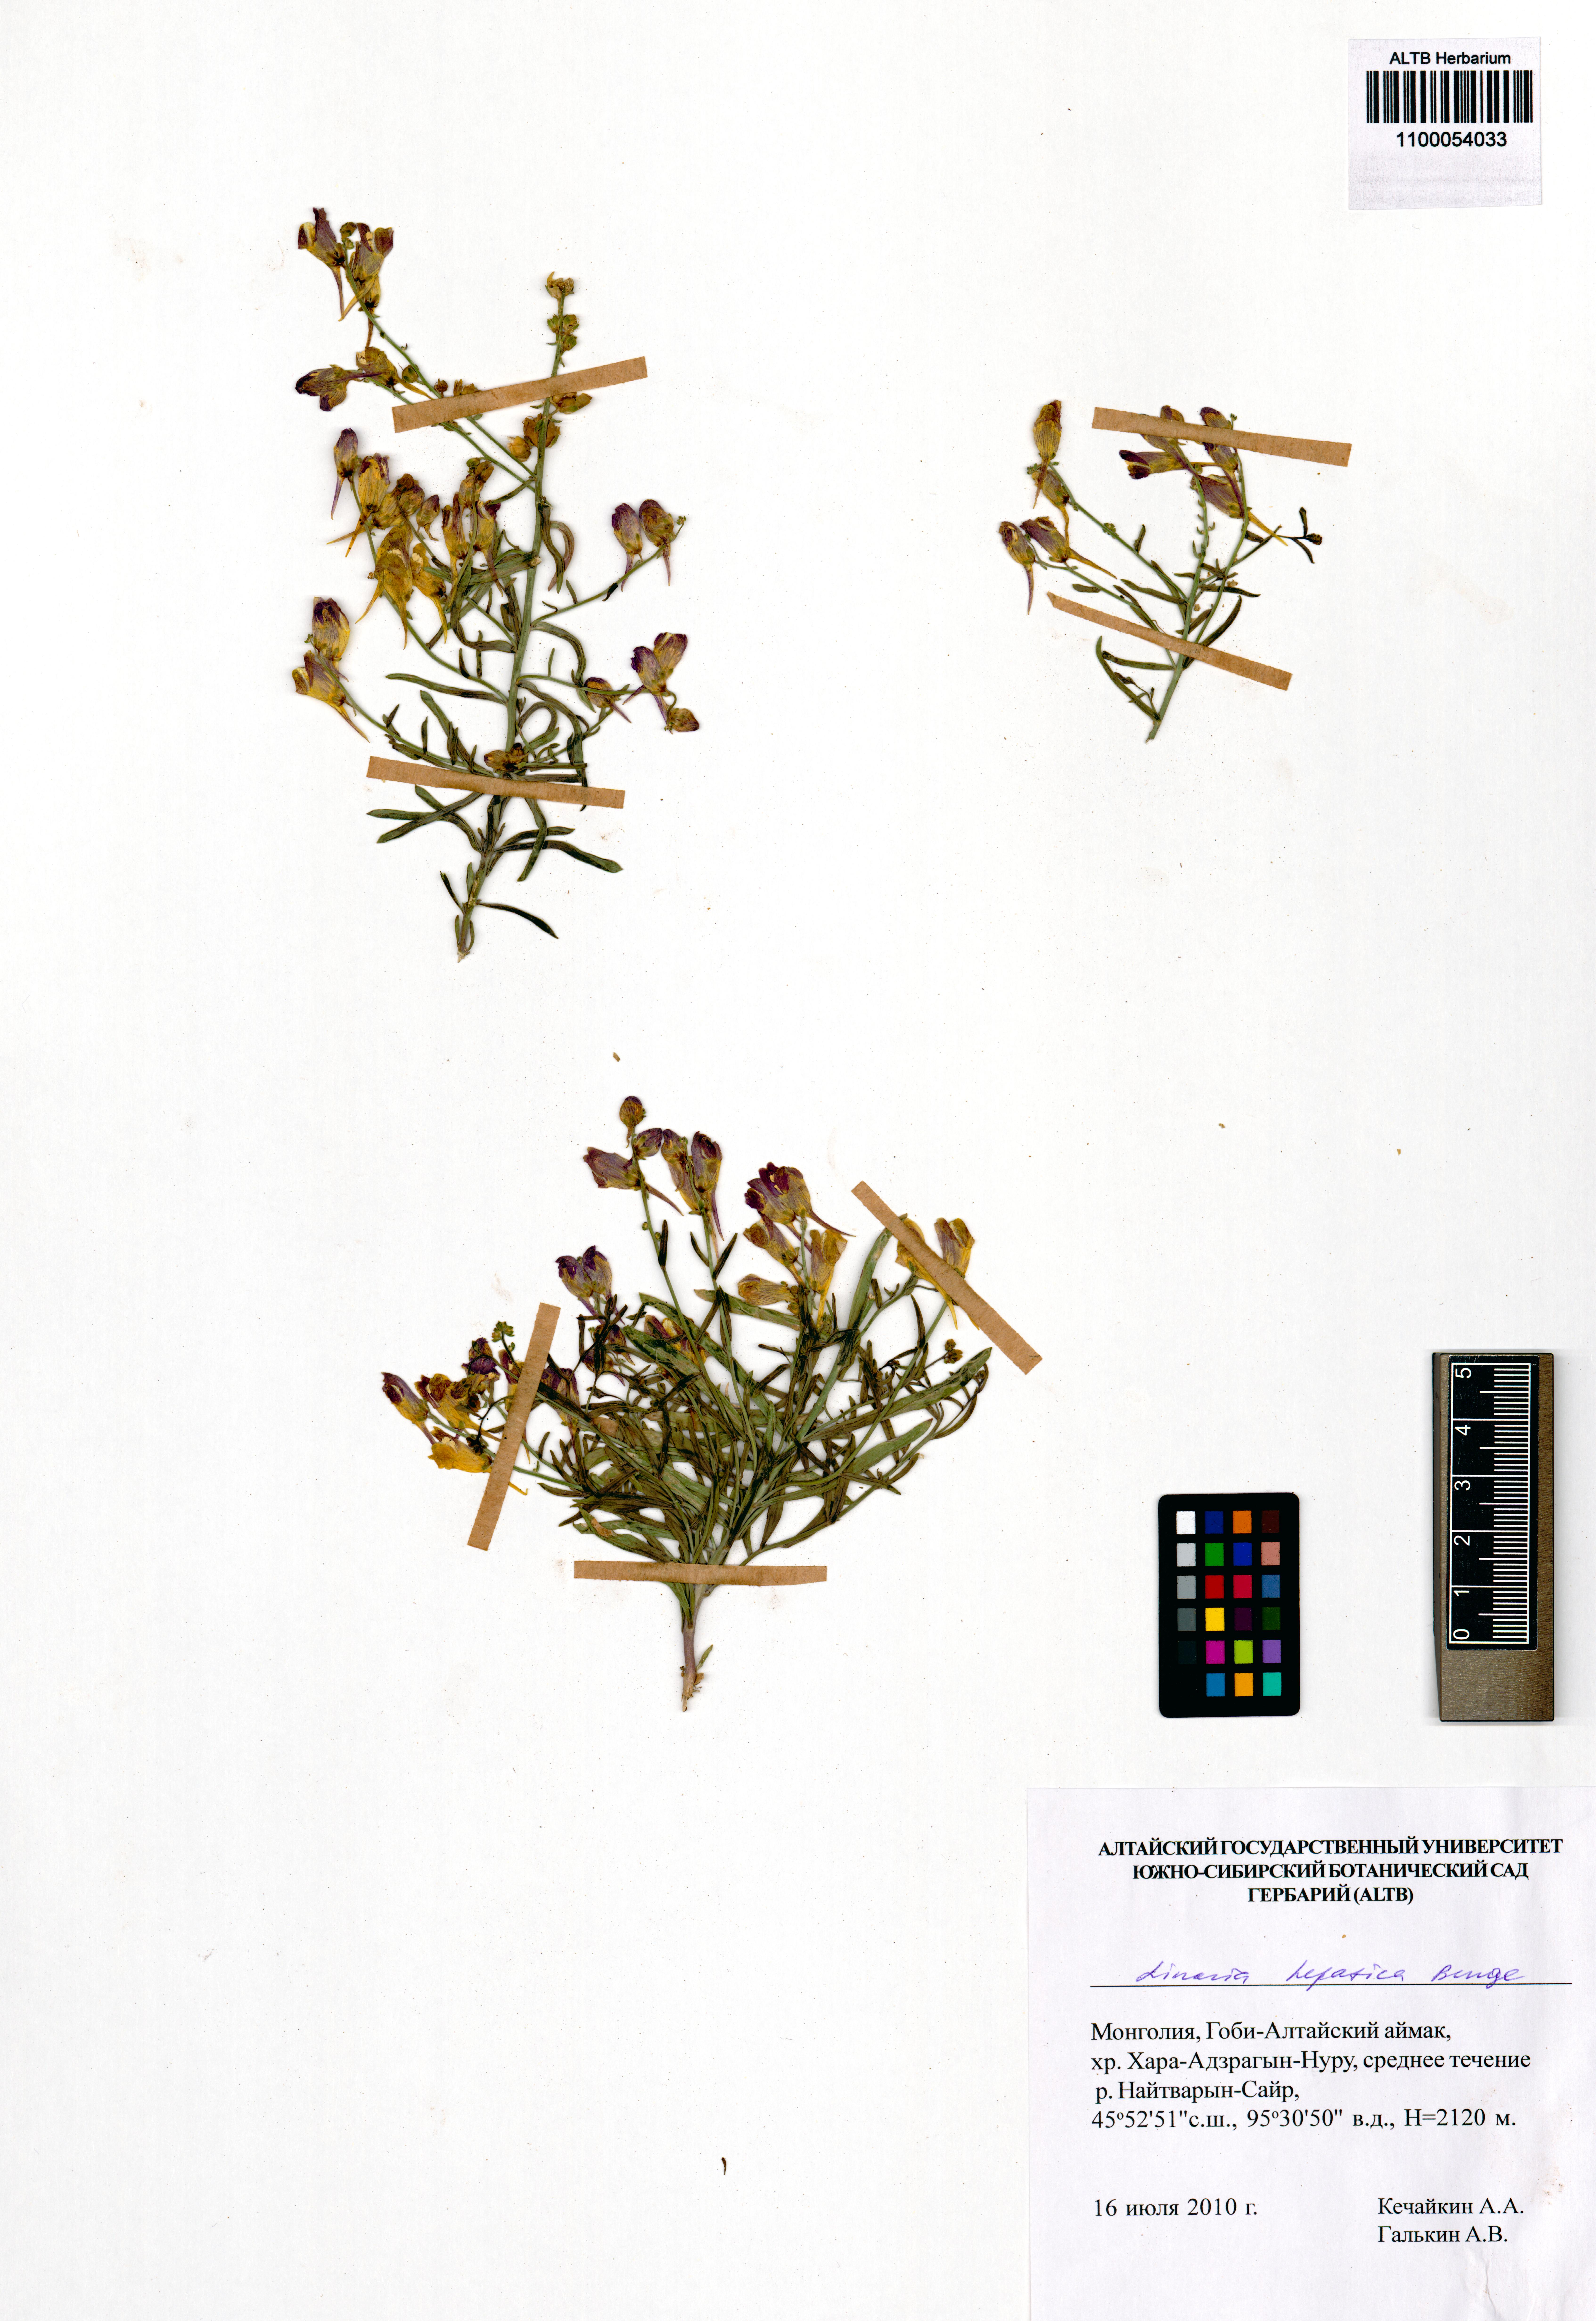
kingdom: Plantae
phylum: Tracheophyta
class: Magnoliopsida
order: Lamiales
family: Plantaginaceae
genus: Linaria
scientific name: Linaria hepatica
